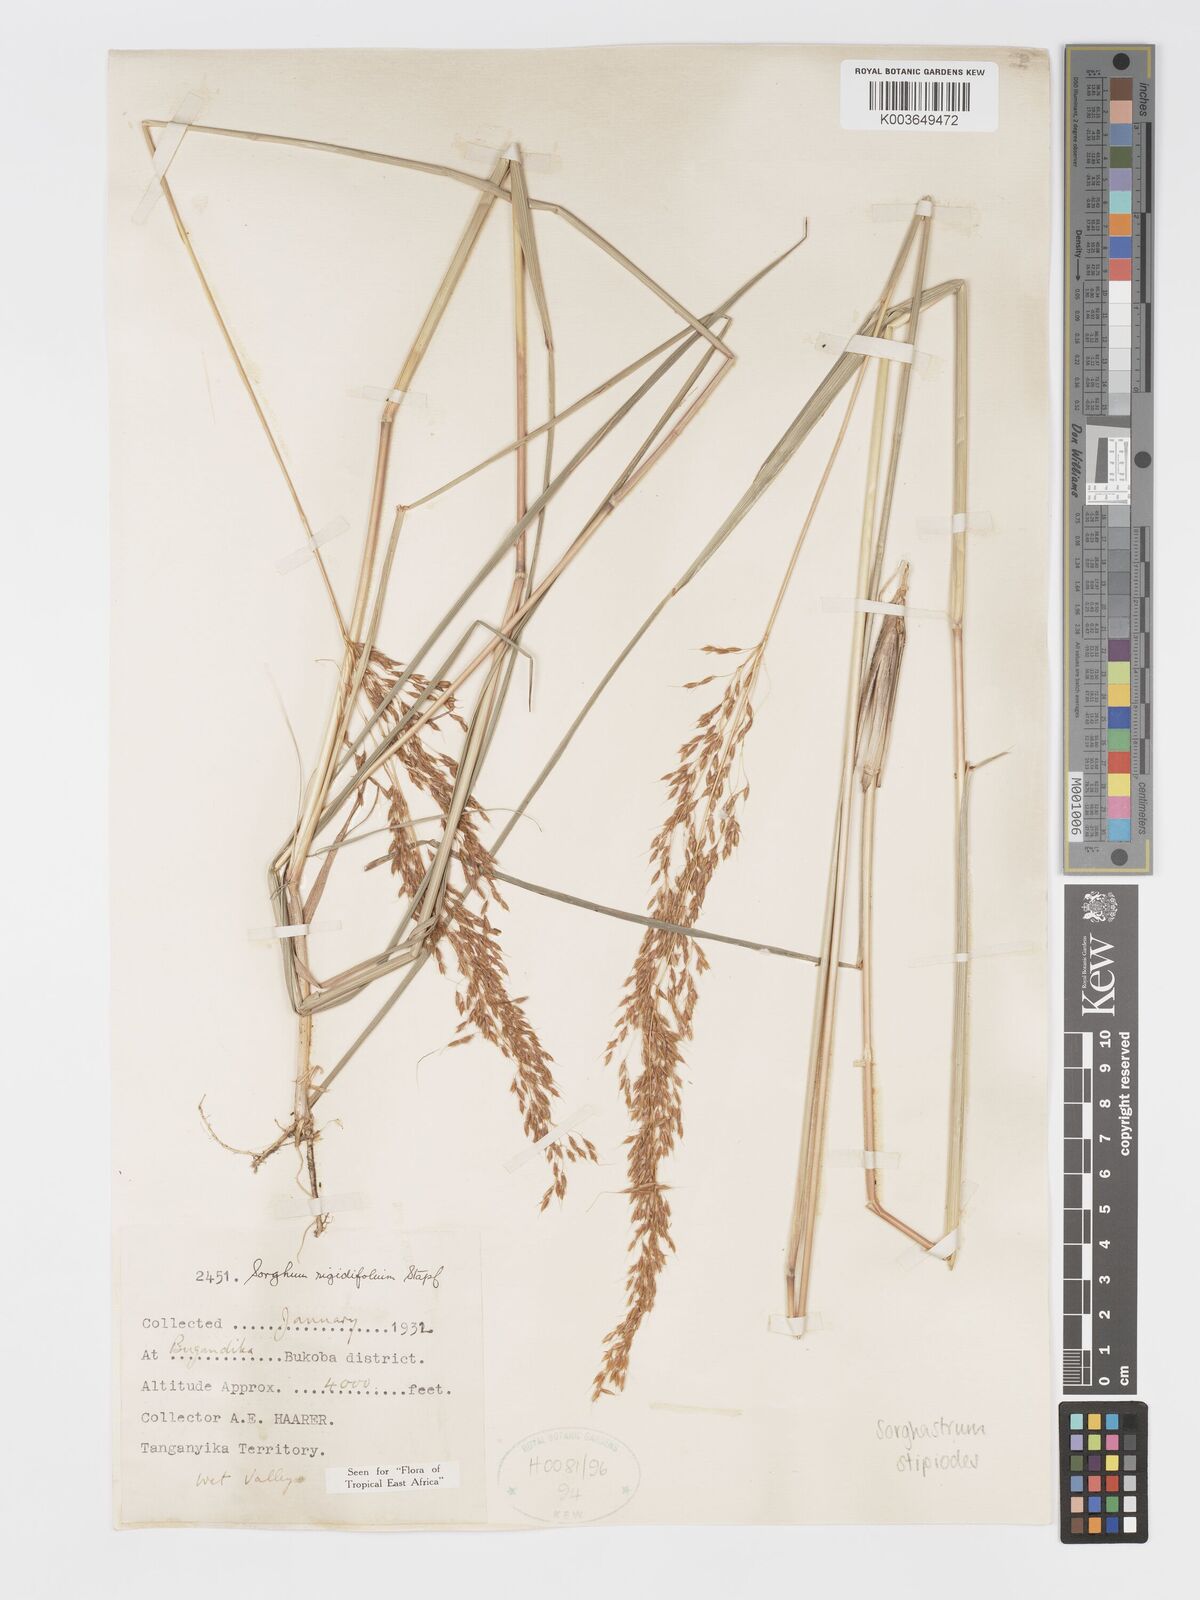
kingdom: Plantae
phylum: Tracheophyta
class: Liliopsida
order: Poales
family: Poaceae
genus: Sorghastrum
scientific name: Sorghastrum stipoides
